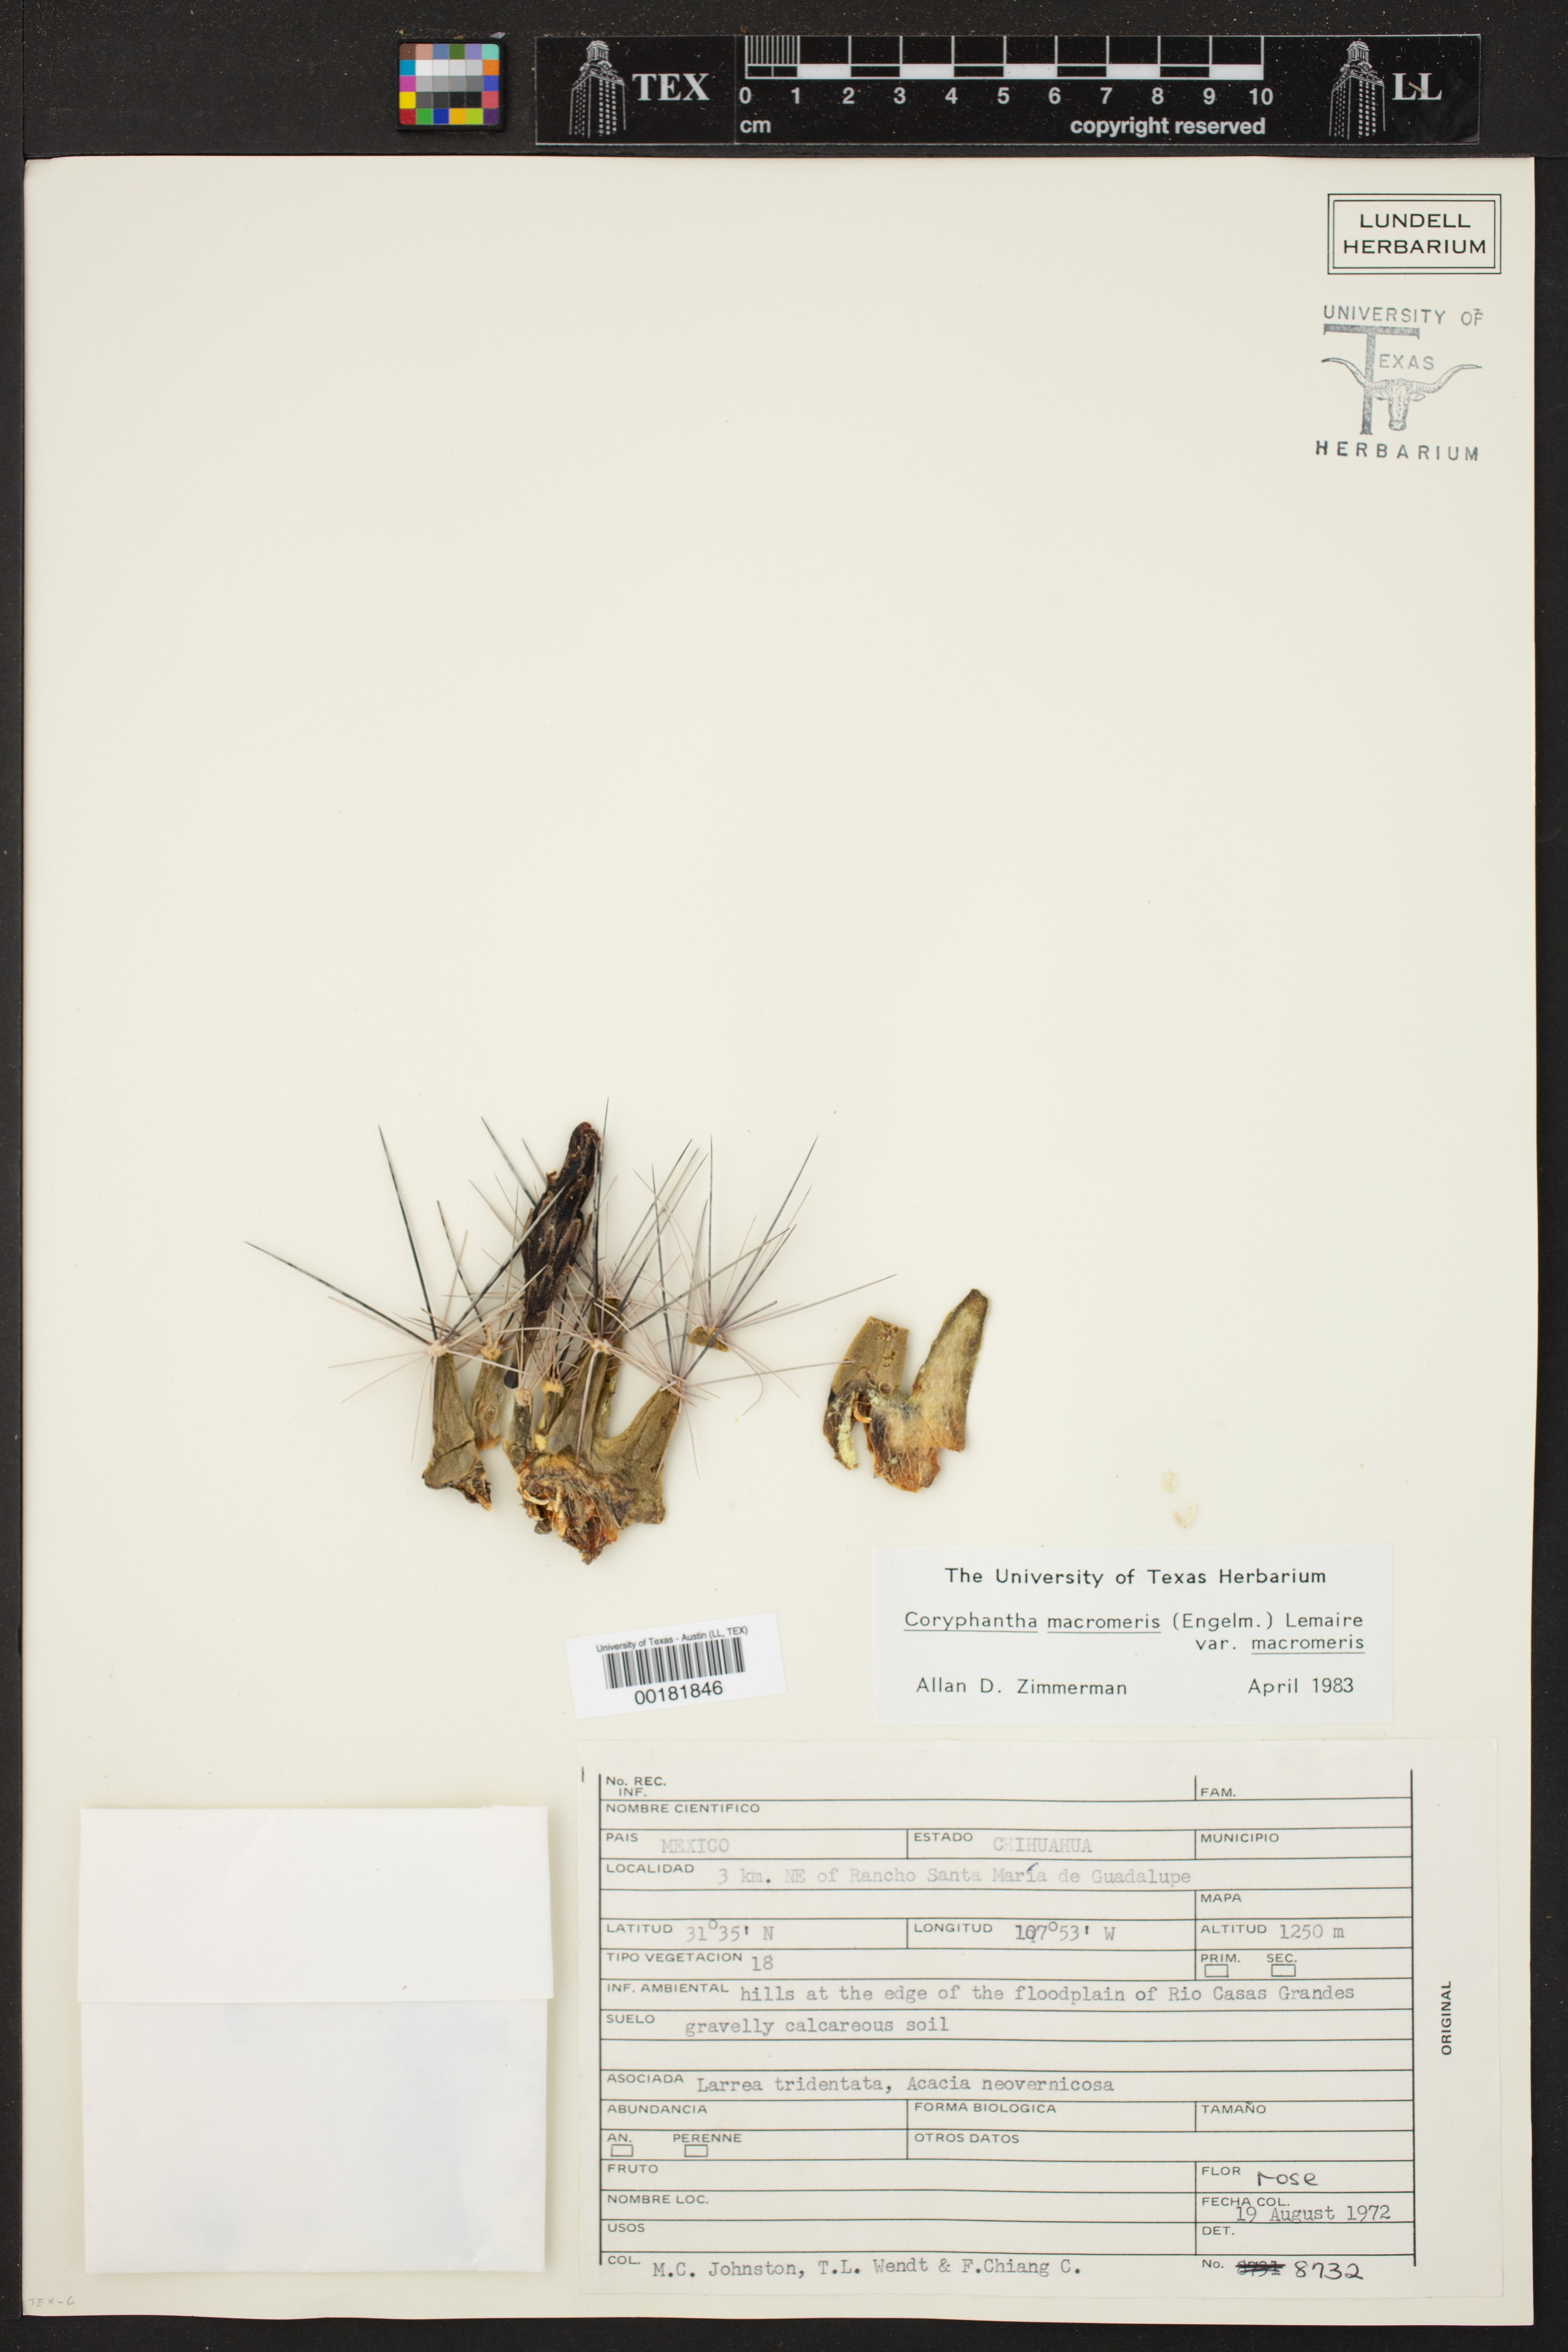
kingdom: Plantae
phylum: Tracheophyta
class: Magnoliopsida
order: Caryophyllales
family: Cactaceae
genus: Coryphantha
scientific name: Coryphantha macromeris
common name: Nipple beehive cactus
